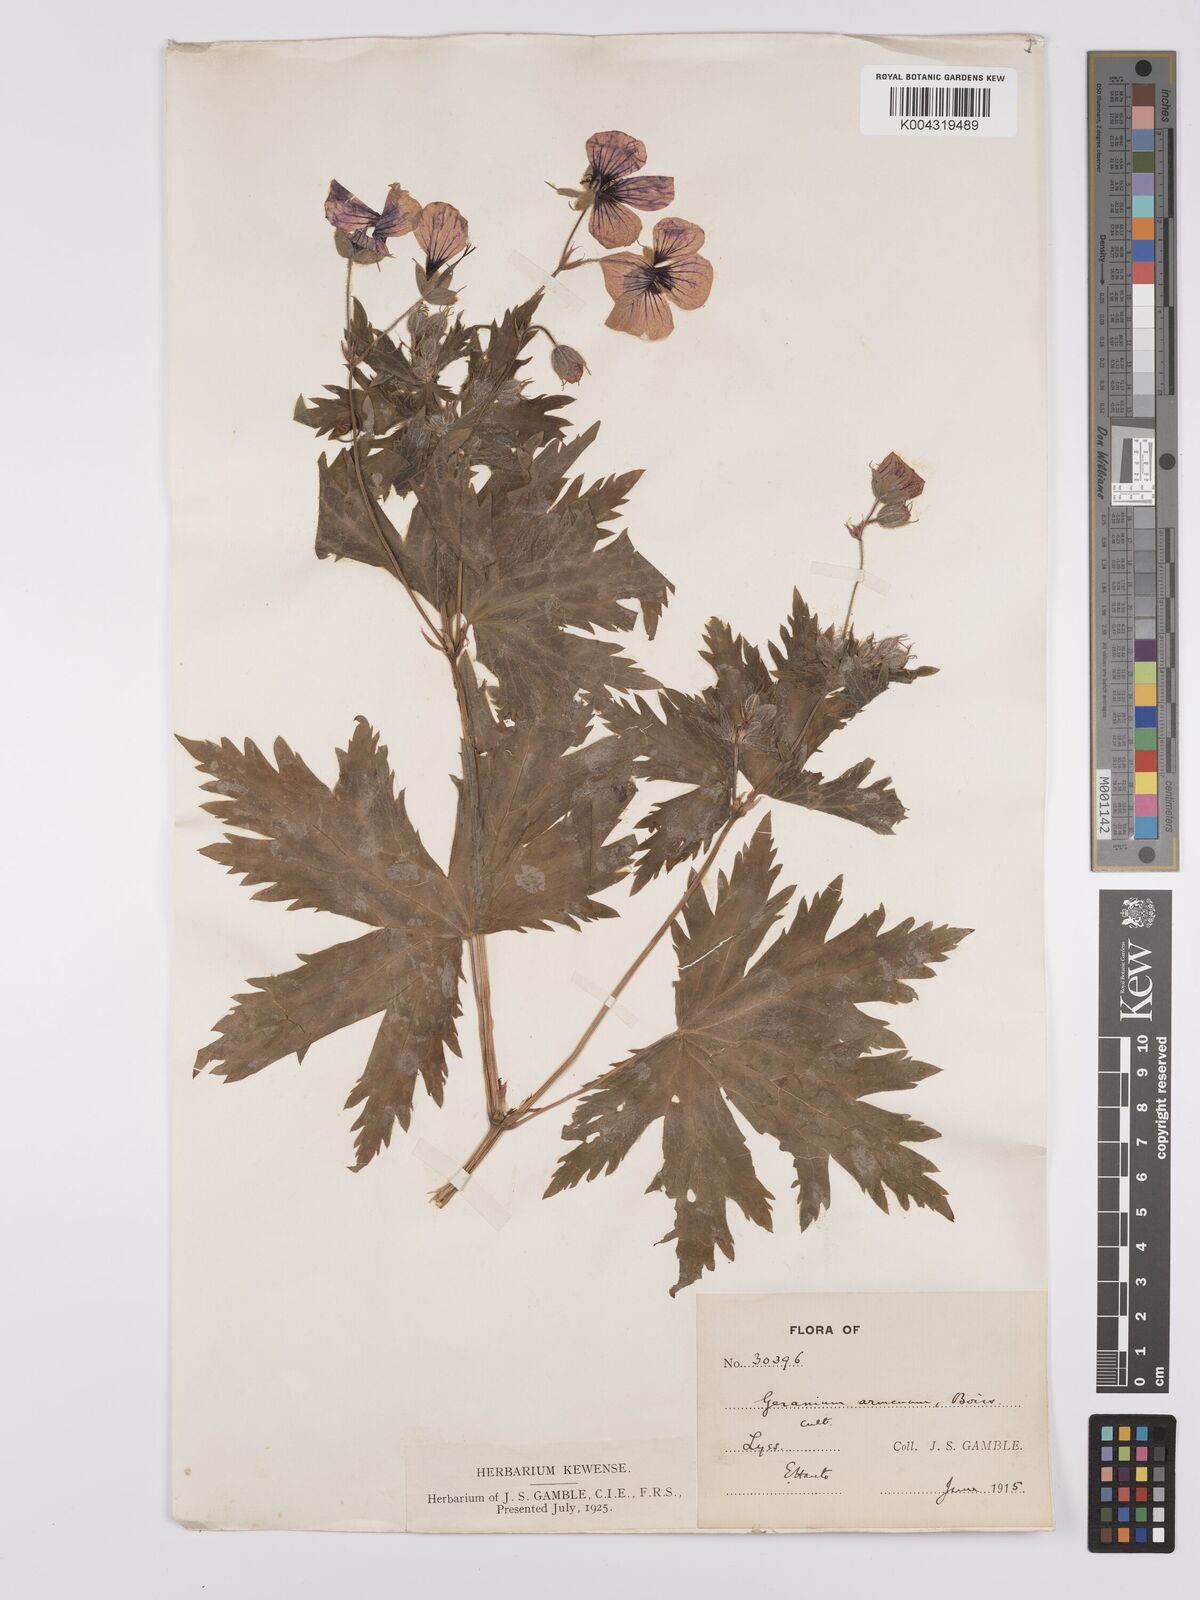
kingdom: Plantae
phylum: Tracheophyta
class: Magnoliopsida
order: Geraniales
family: Geraniaceae
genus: Geranium
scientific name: Geranium psilostemon
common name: Armenian crane's-bill
